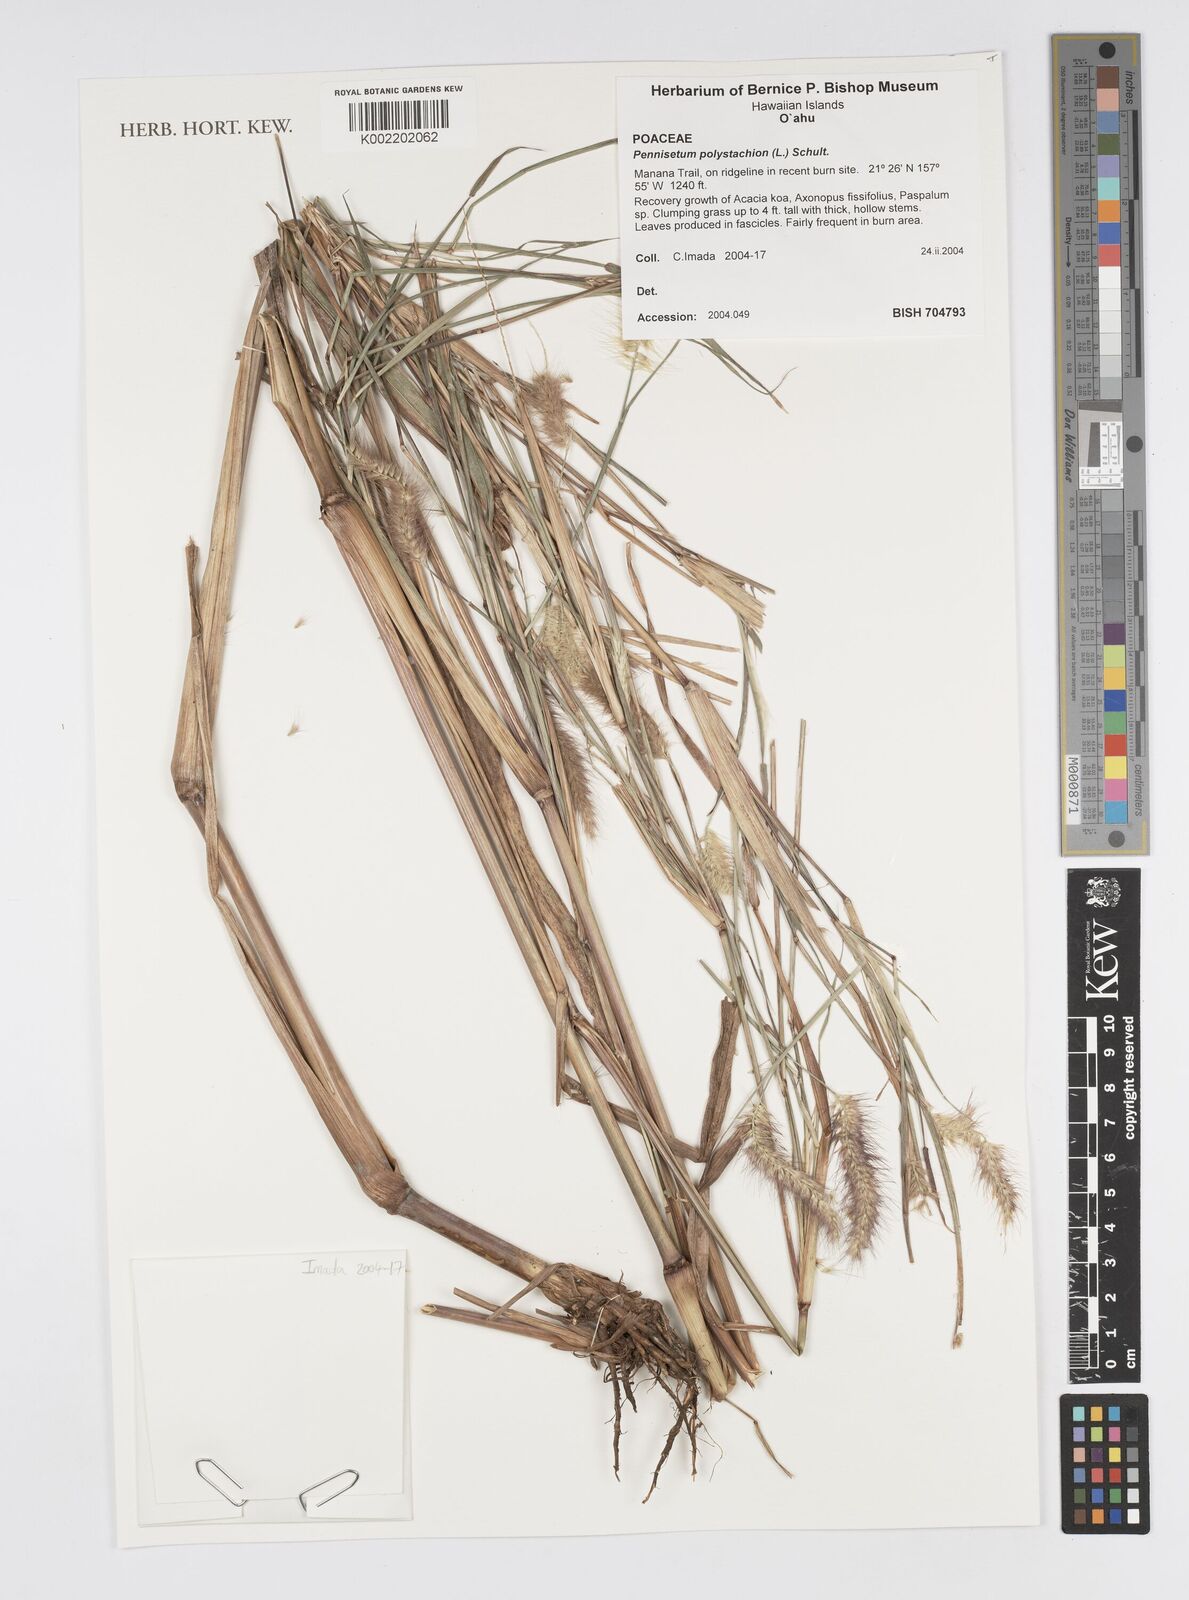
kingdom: Plantae
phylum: Tracheophyta
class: Liliopsida
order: Poales
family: Poaceae
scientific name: Poaceae
